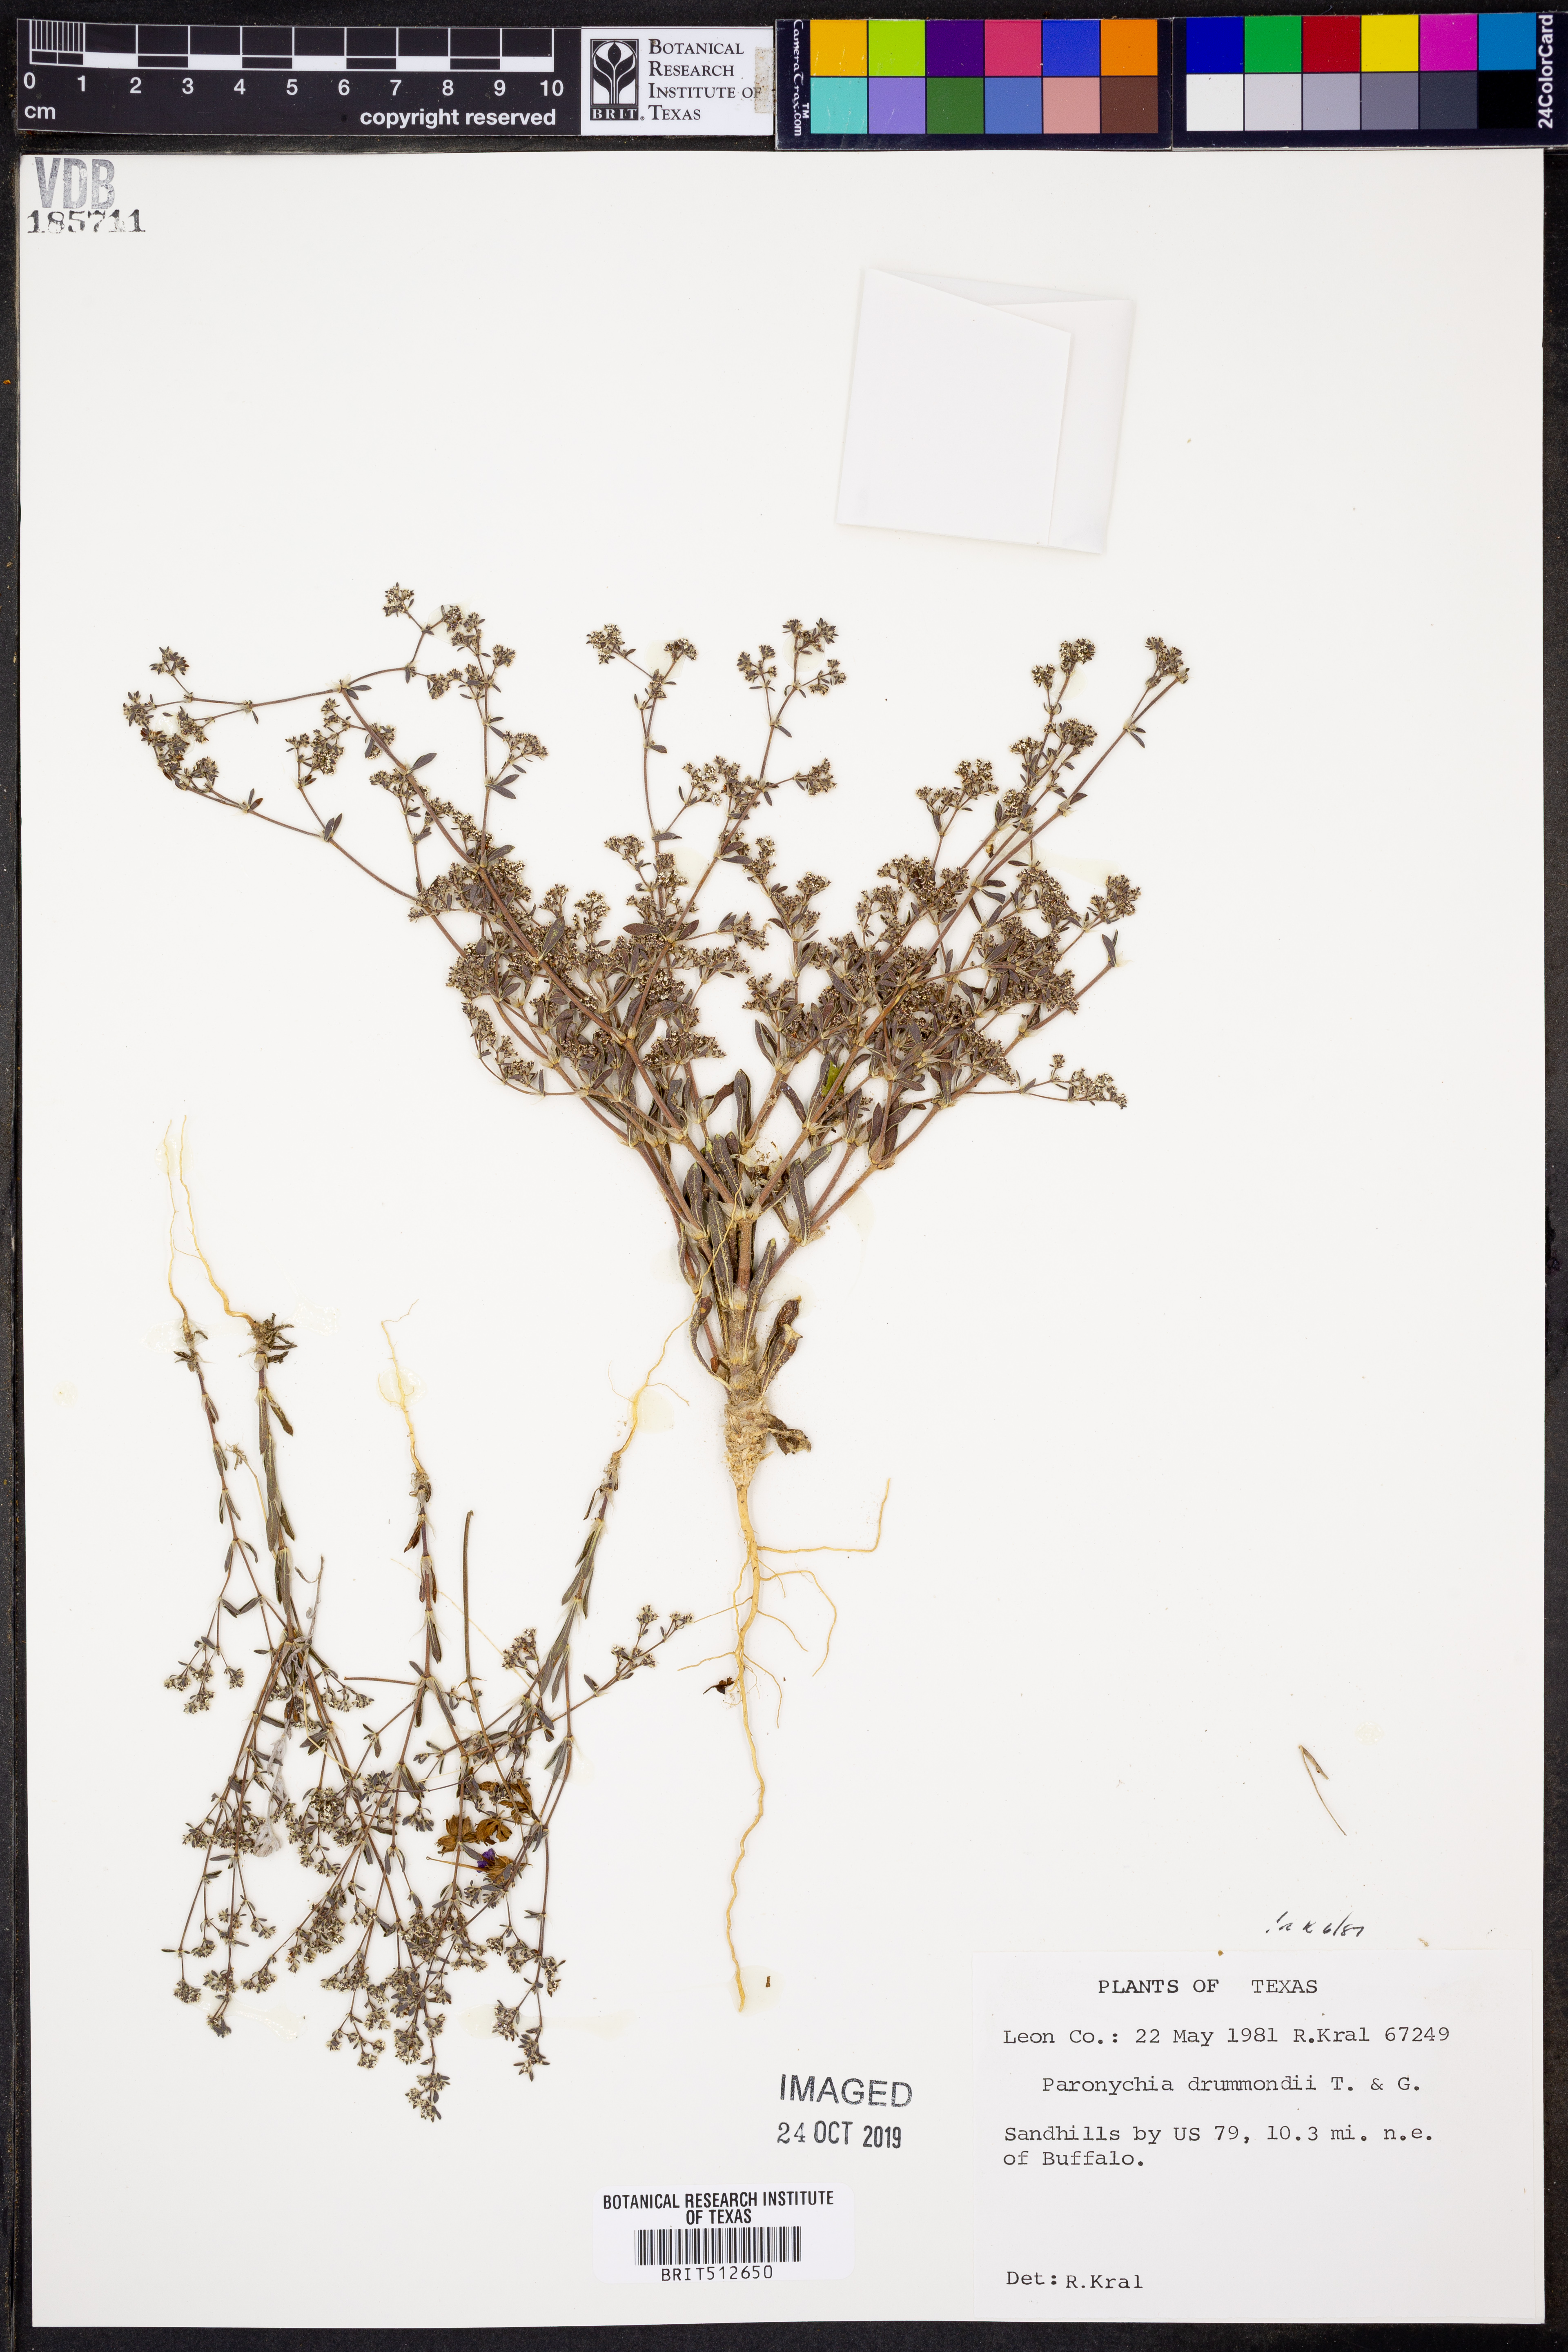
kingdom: Plantae
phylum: Tracheophyta
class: Magnoliopsida
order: Caryophyllales
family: Caryophyllaceae
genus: Paronychia
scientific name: Paronychia drummondii
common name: Drummond's nailwort
